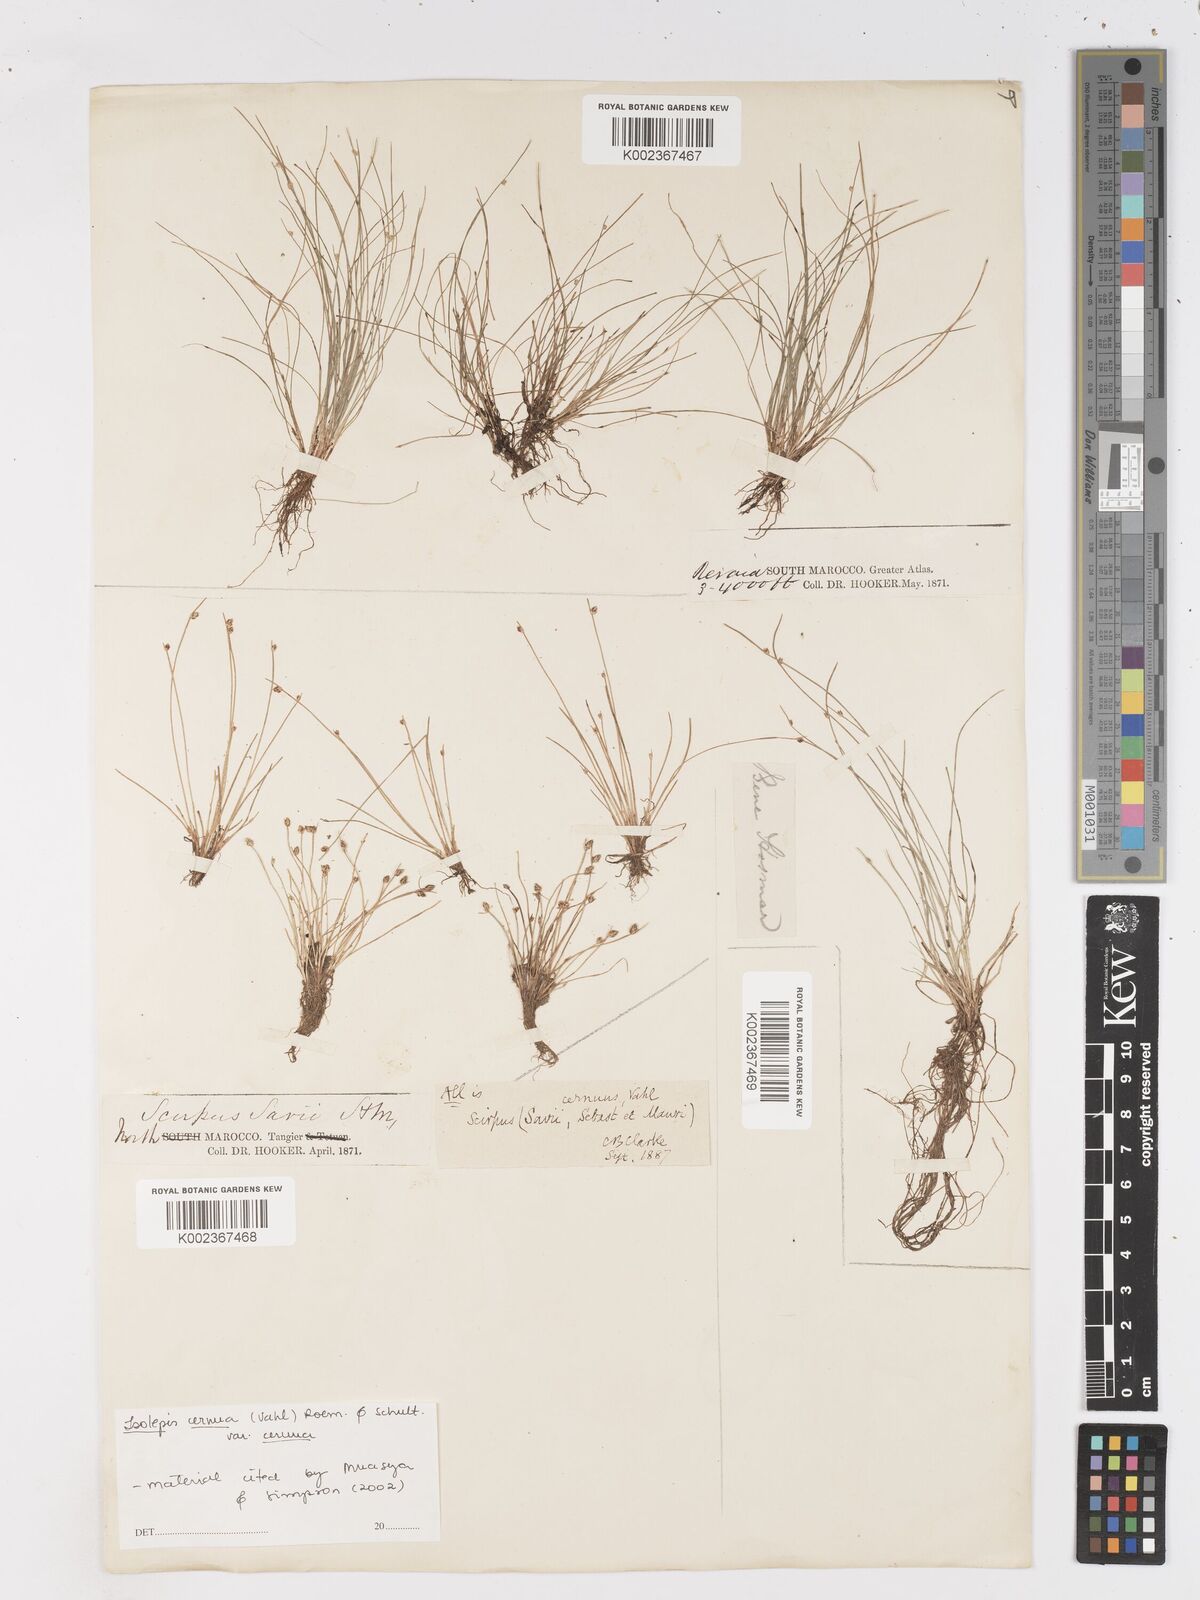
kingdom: Plantae
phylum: Tracheophyta
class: Liliopsida
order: Poales
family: Cyperaceae
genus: Isolepis
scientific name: Isolepis cernua
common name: Slender club-rush
